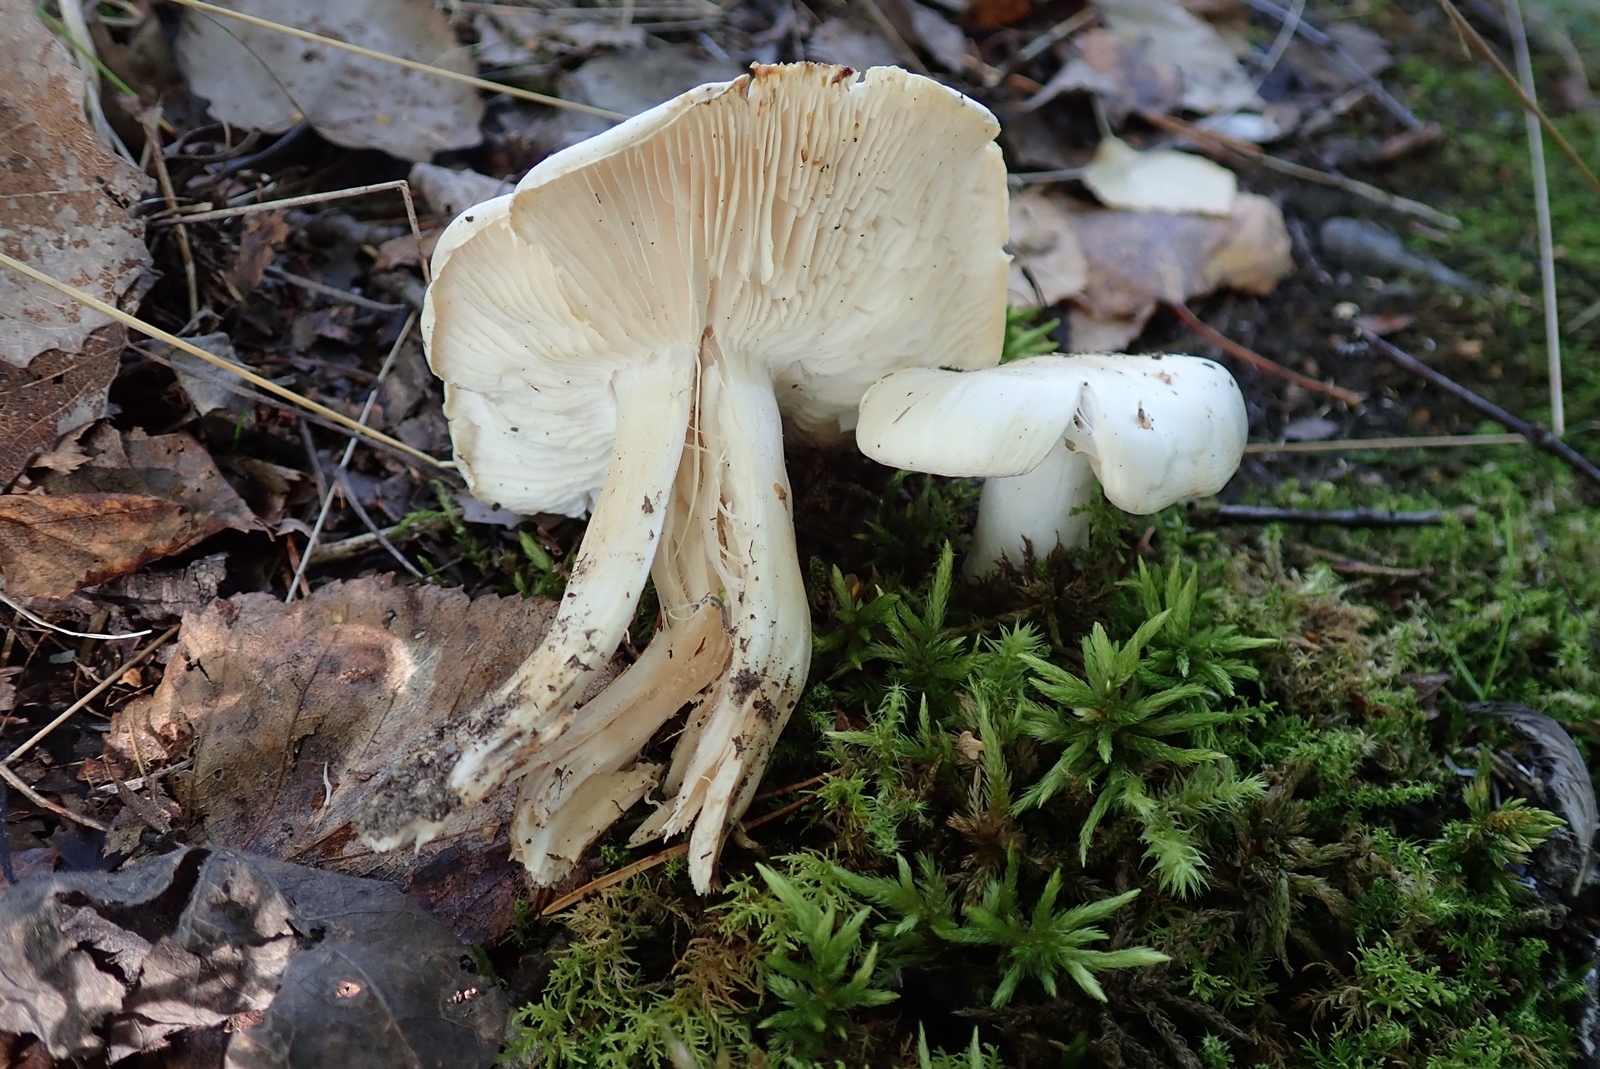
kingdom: Fungi
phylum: Basidiomycota
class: Agaricomycetes
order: Agaricales
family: Tricholomataceae
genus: Tricholoma
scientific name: Tricholoma columbetta
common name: Blue spot knight
